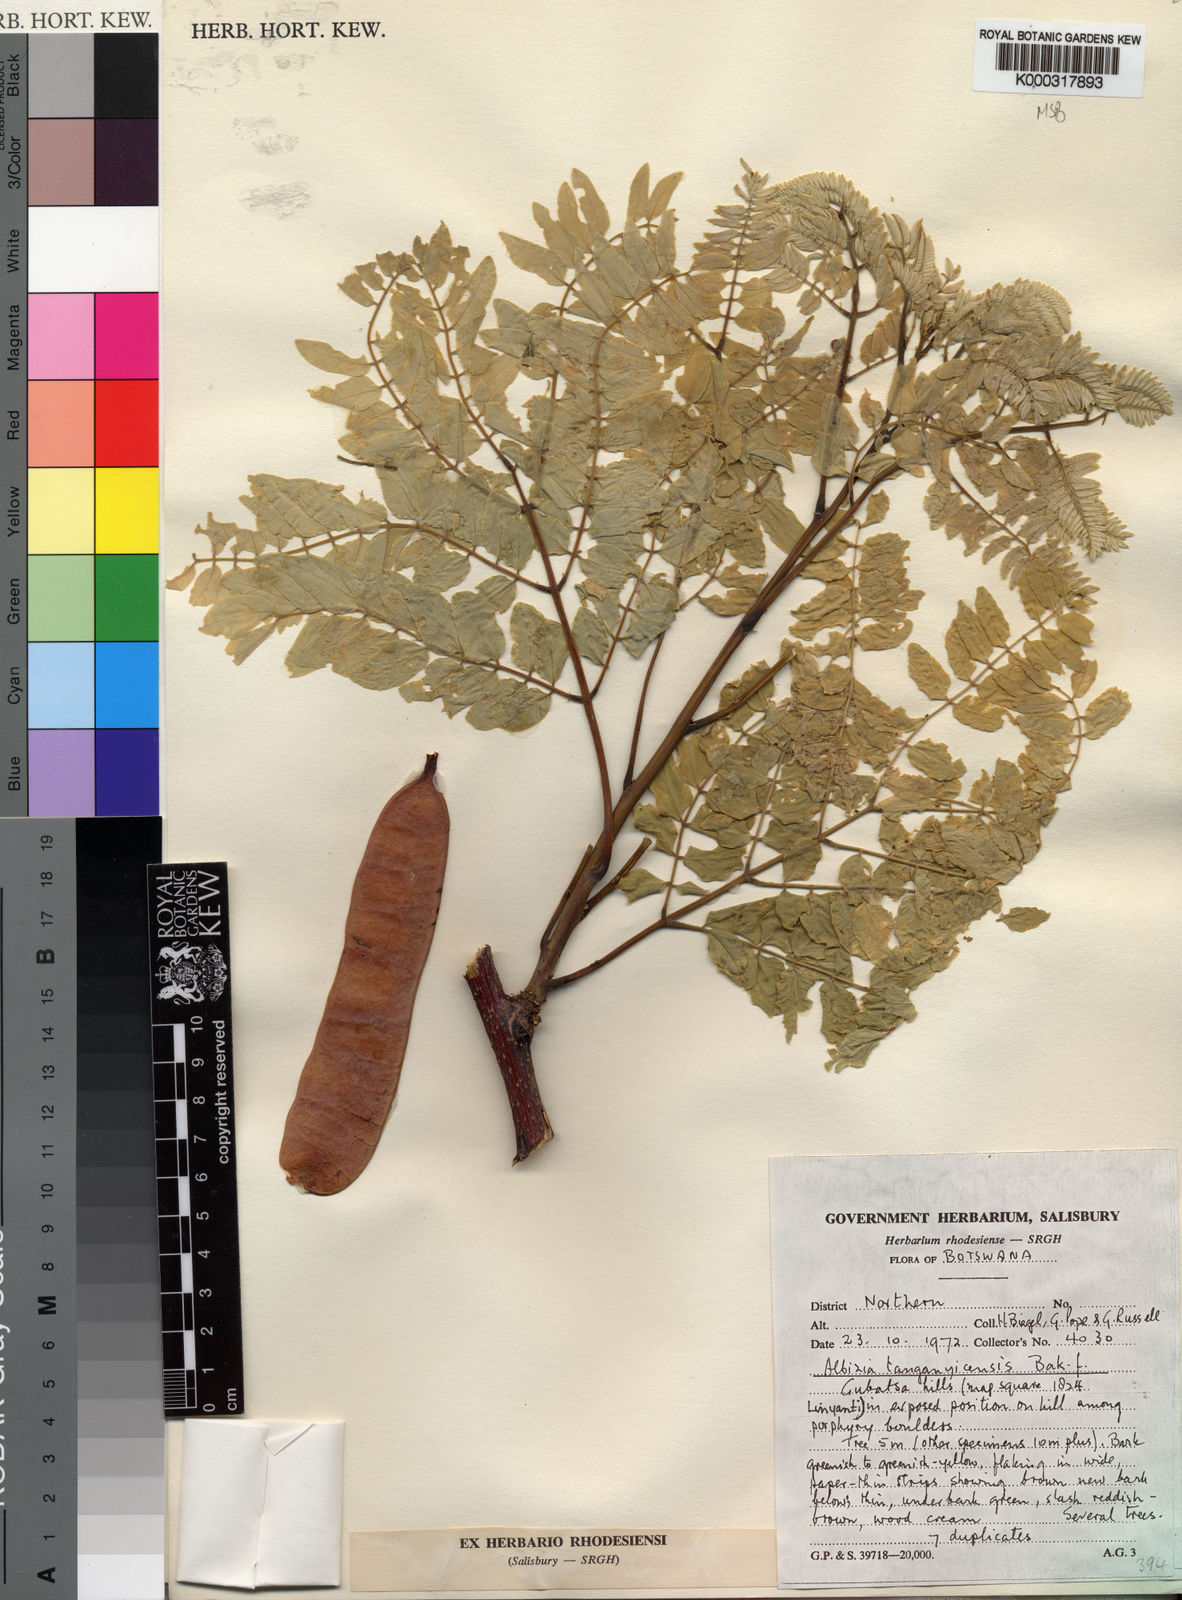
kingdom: Plantae
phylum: Tracheophyta
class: Magnoliopsida
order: Fabales
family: Fabaceae
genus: Albizia
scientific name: Albizia tanganyicensis
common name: Paperbark false thorn
